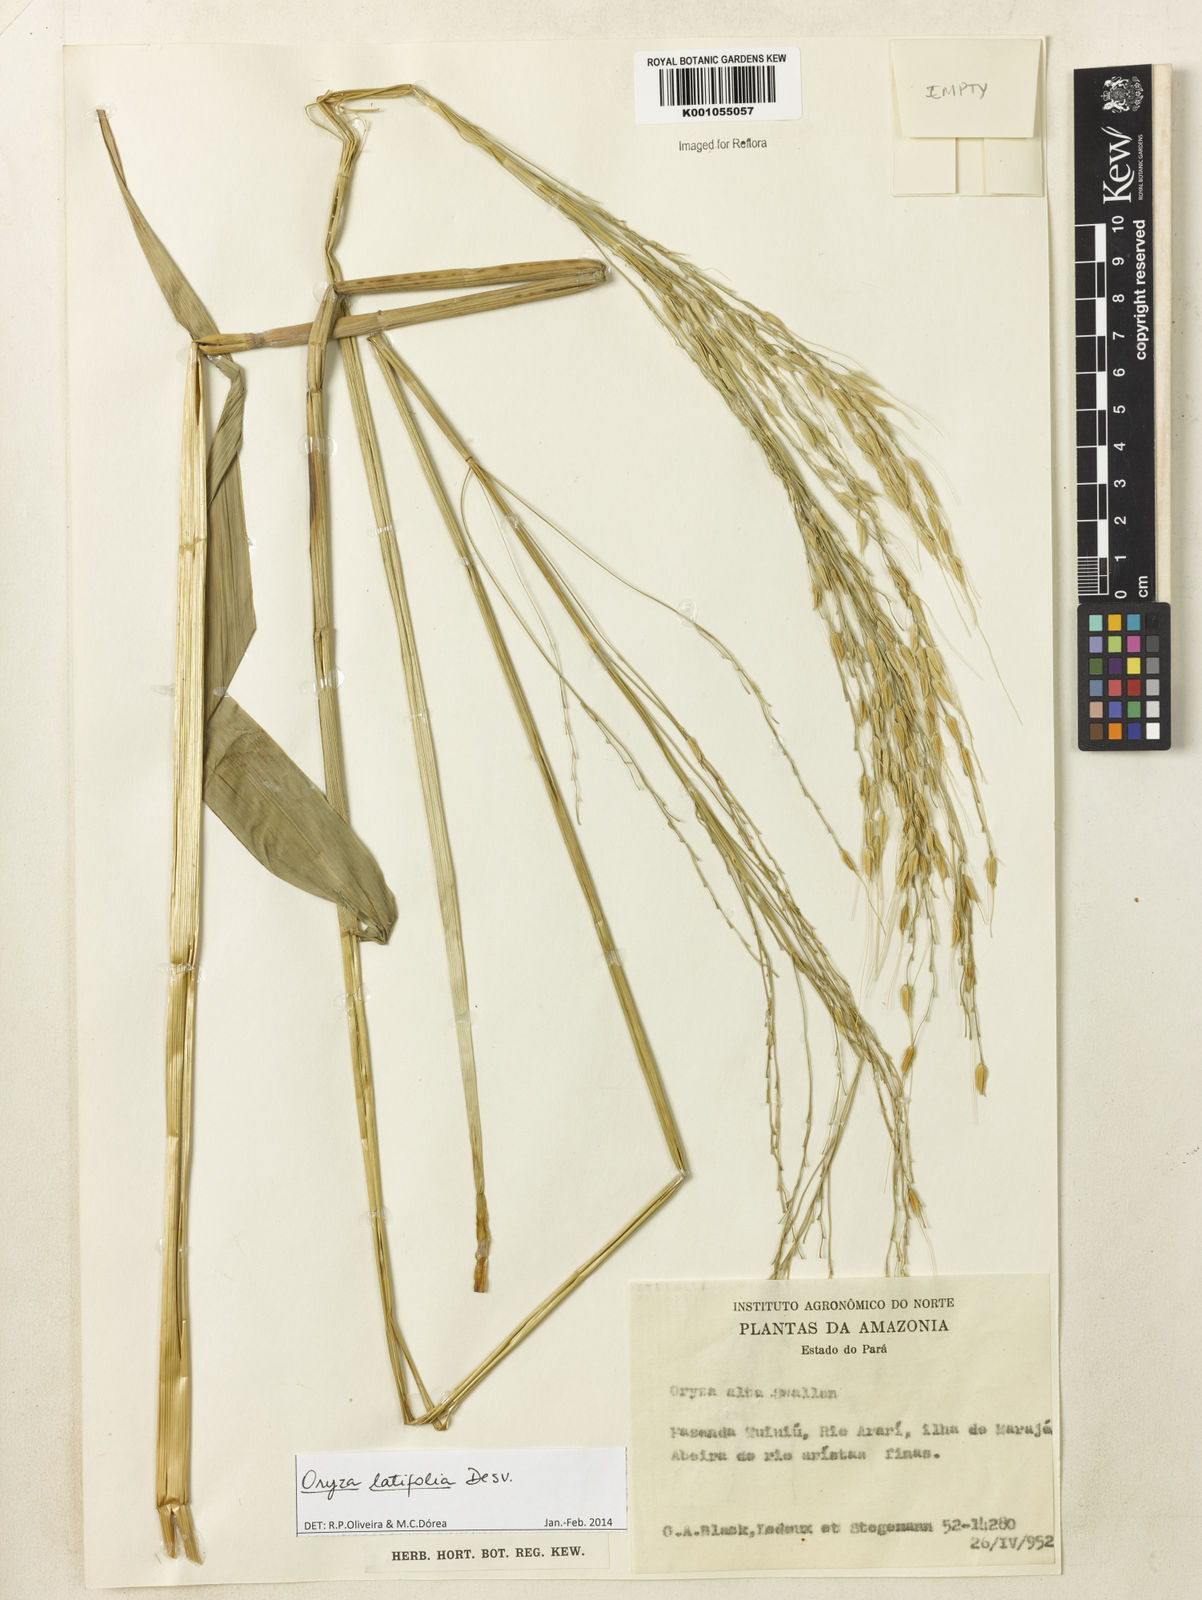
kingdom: Plantae
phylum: Tracheophyta
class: Liliopsida
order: Poales
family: Poaceae
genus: Oryza
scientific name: Oryza latifolia
